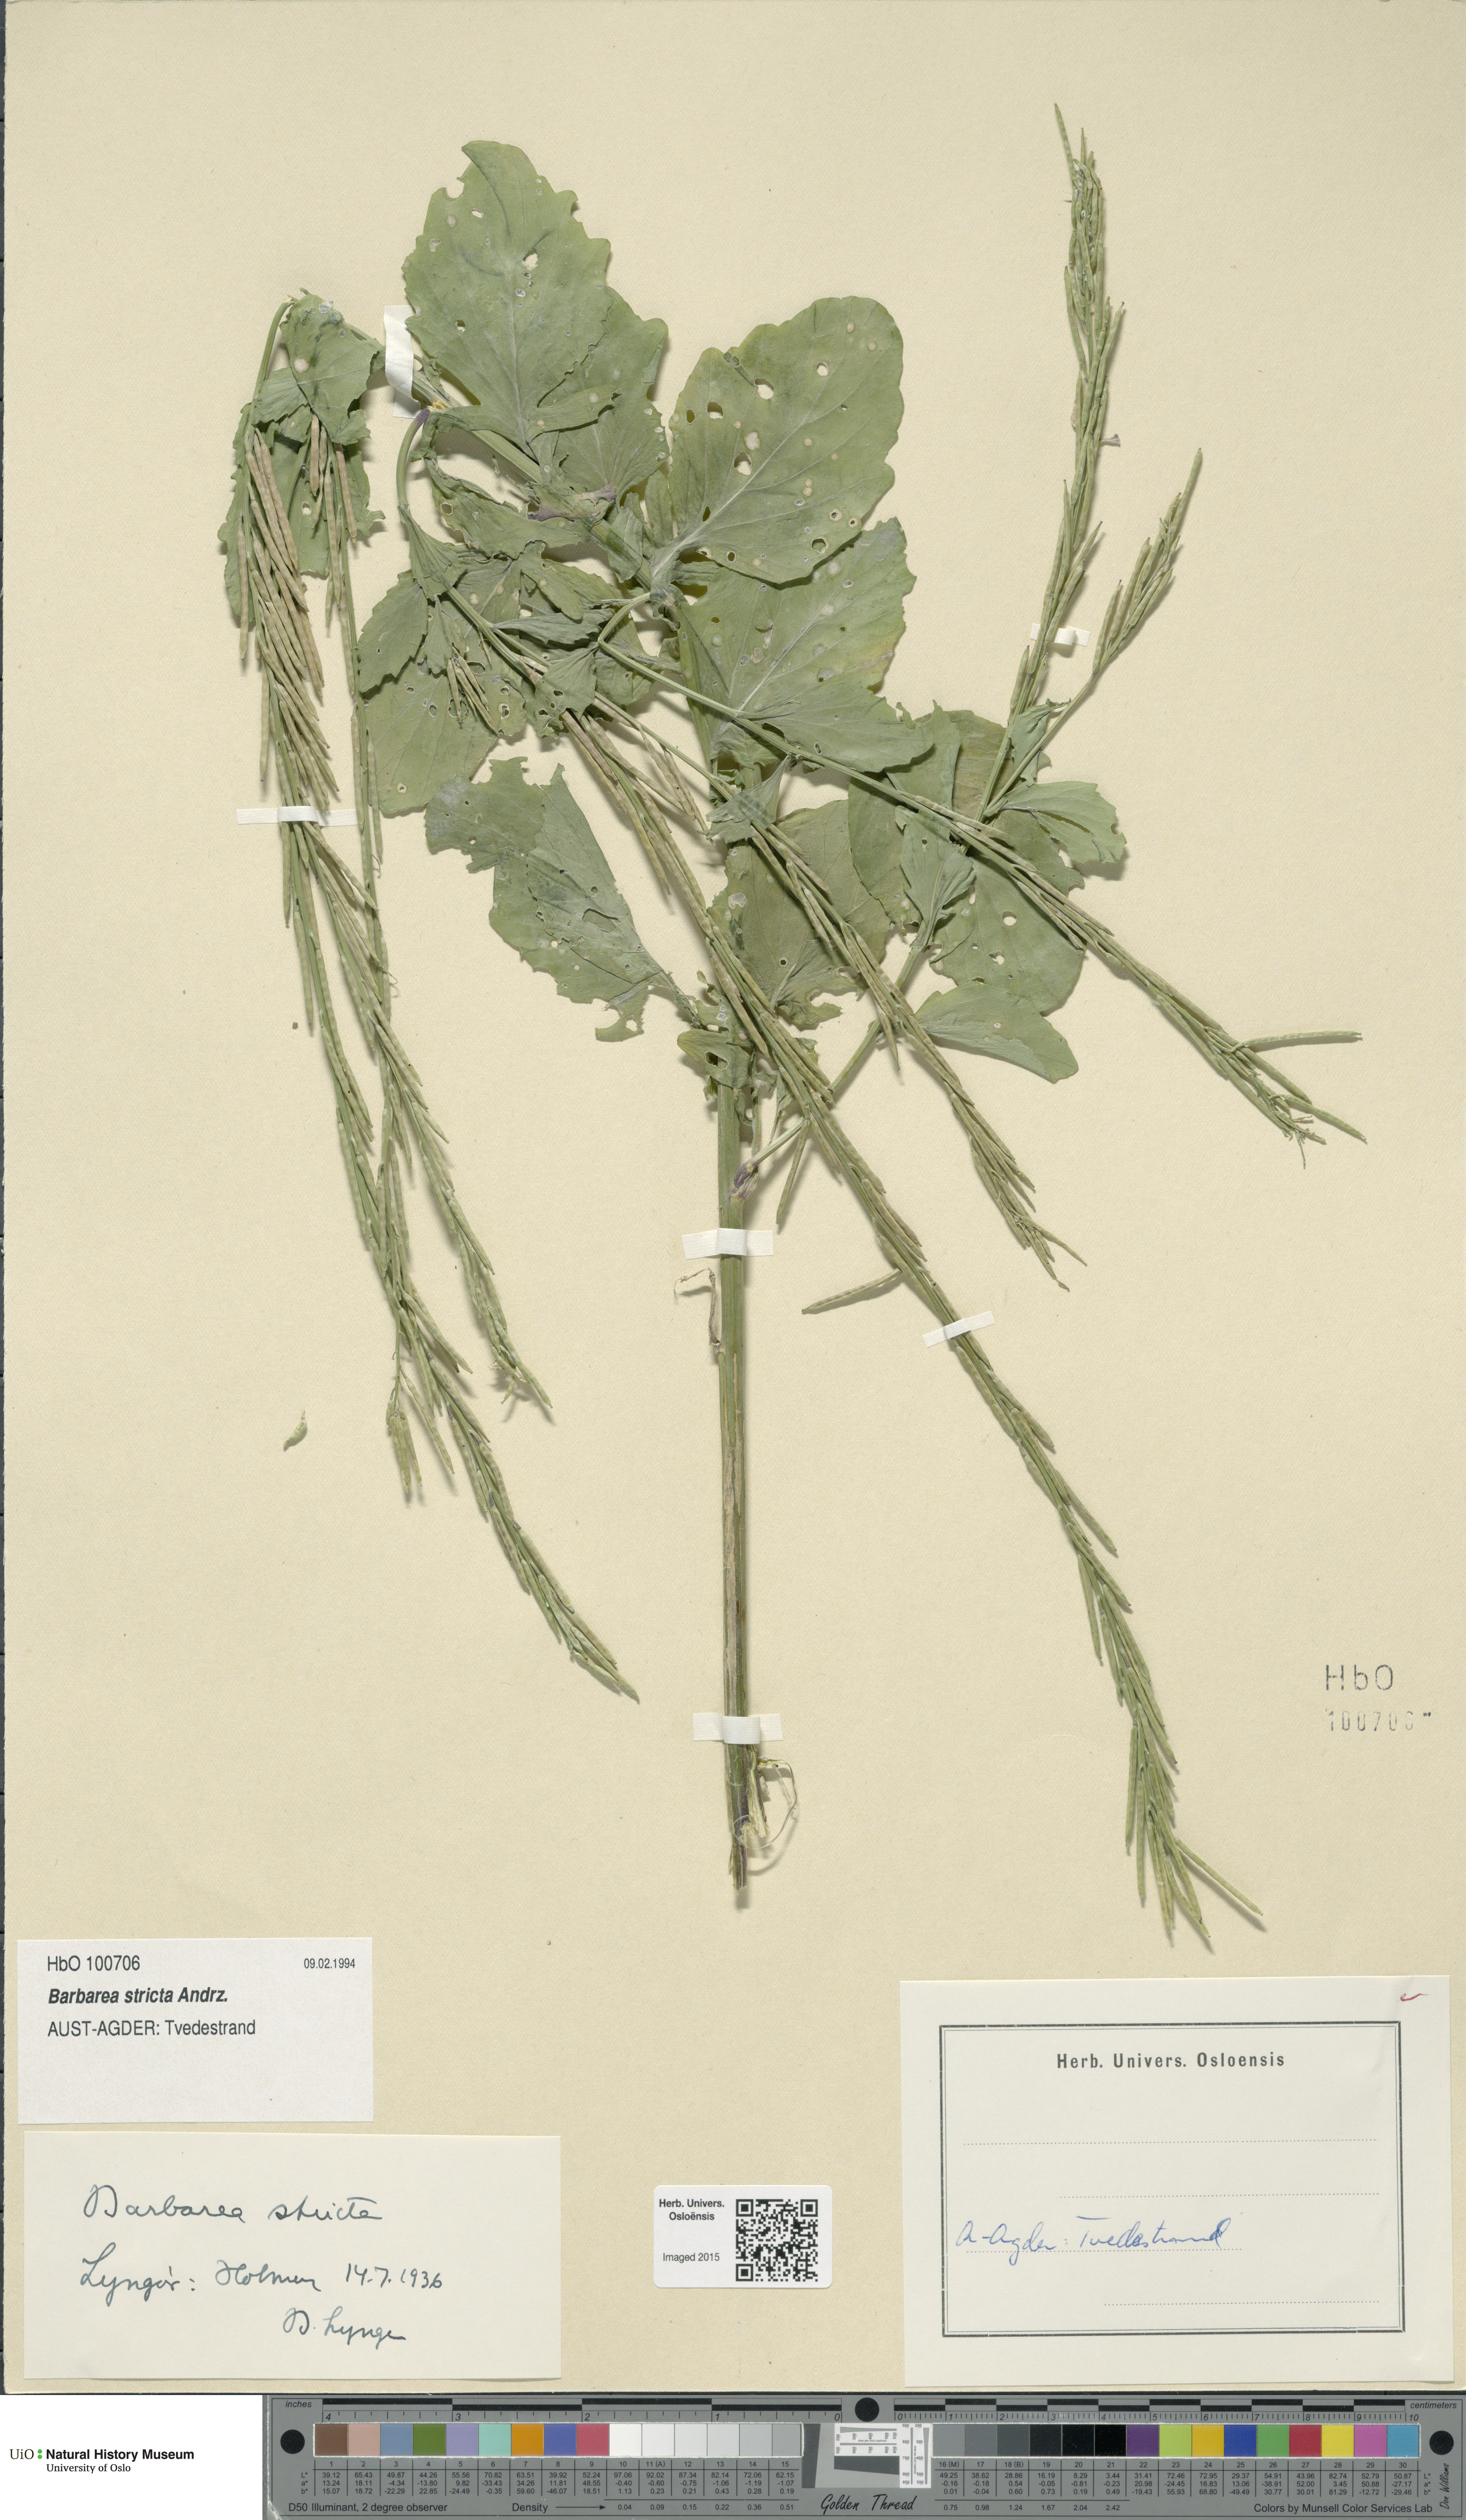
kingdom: Plantae
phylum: Tracheophyta
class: Magnoliopsida
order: Brassicales
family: Brassicaceae
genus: Barbarea
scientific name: Barbarea stricta
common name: Small-flowered winter-cress
